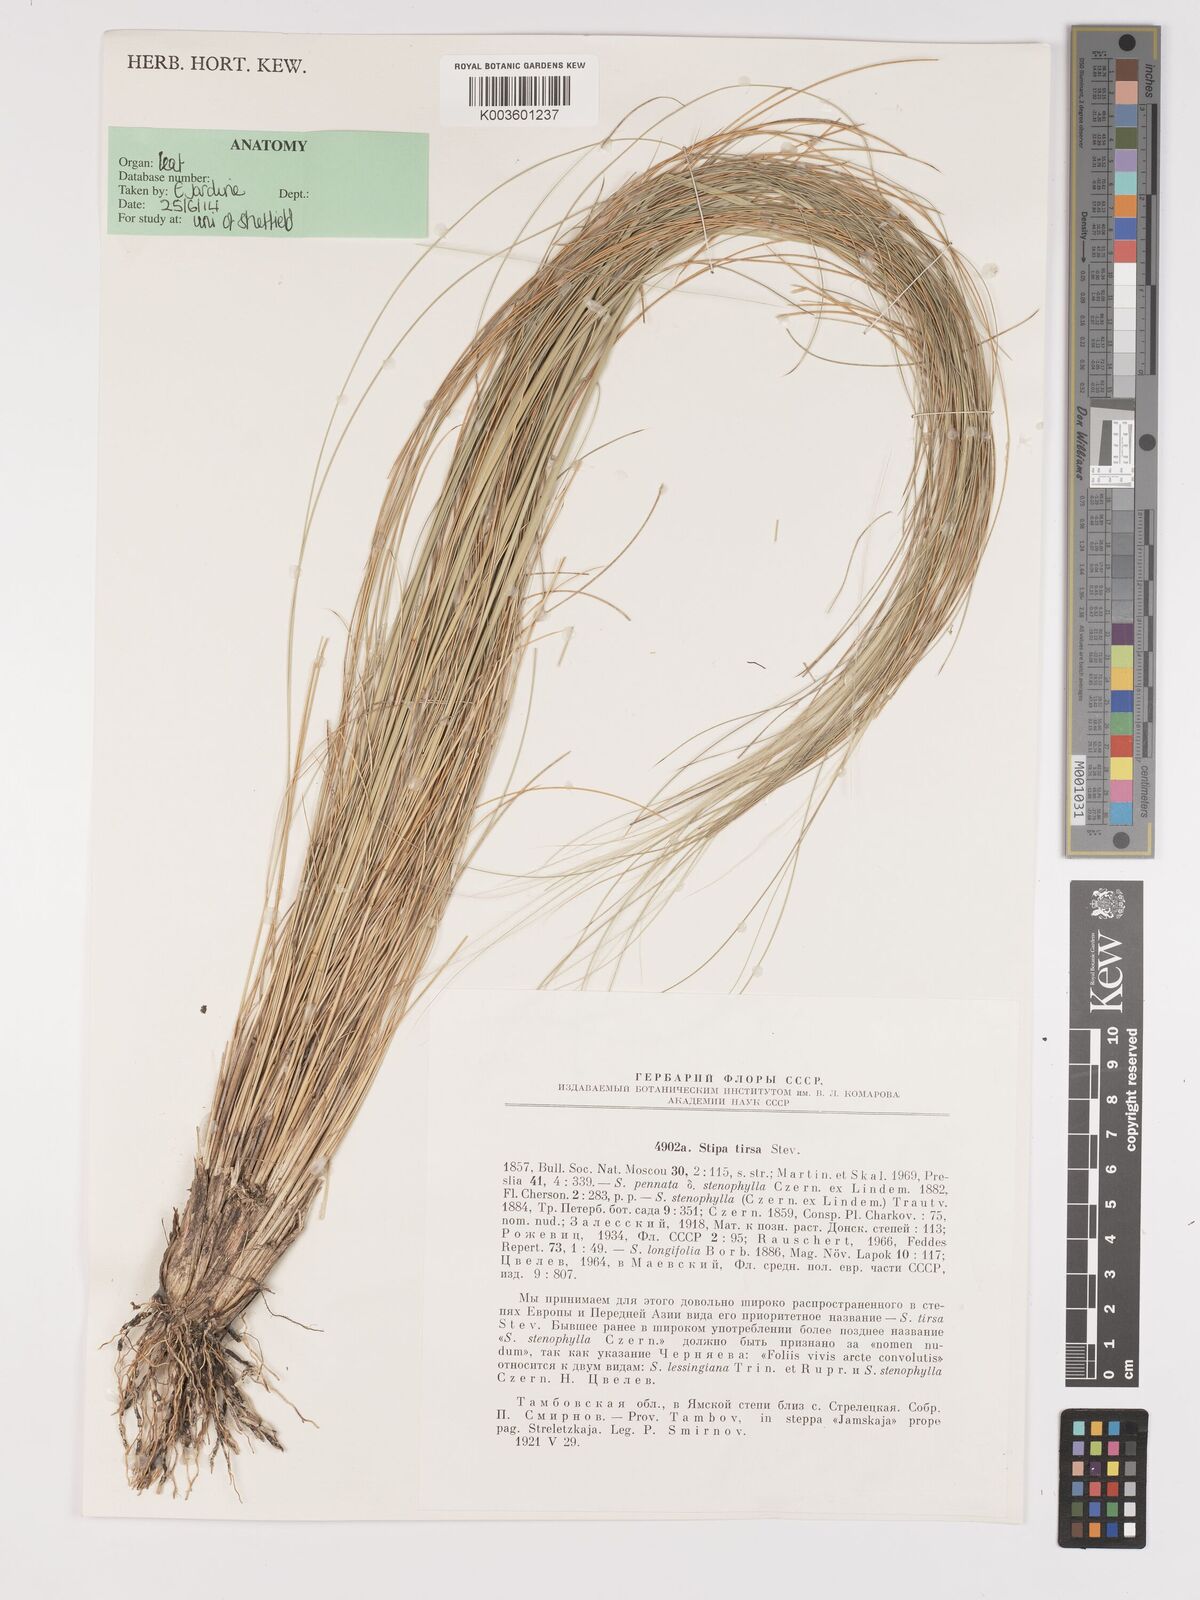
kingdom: Plantae
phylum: Tracheophyta
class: Liliopsida
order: Poales
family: Poaceae
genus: Stipa
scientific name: Stipa tirsa
